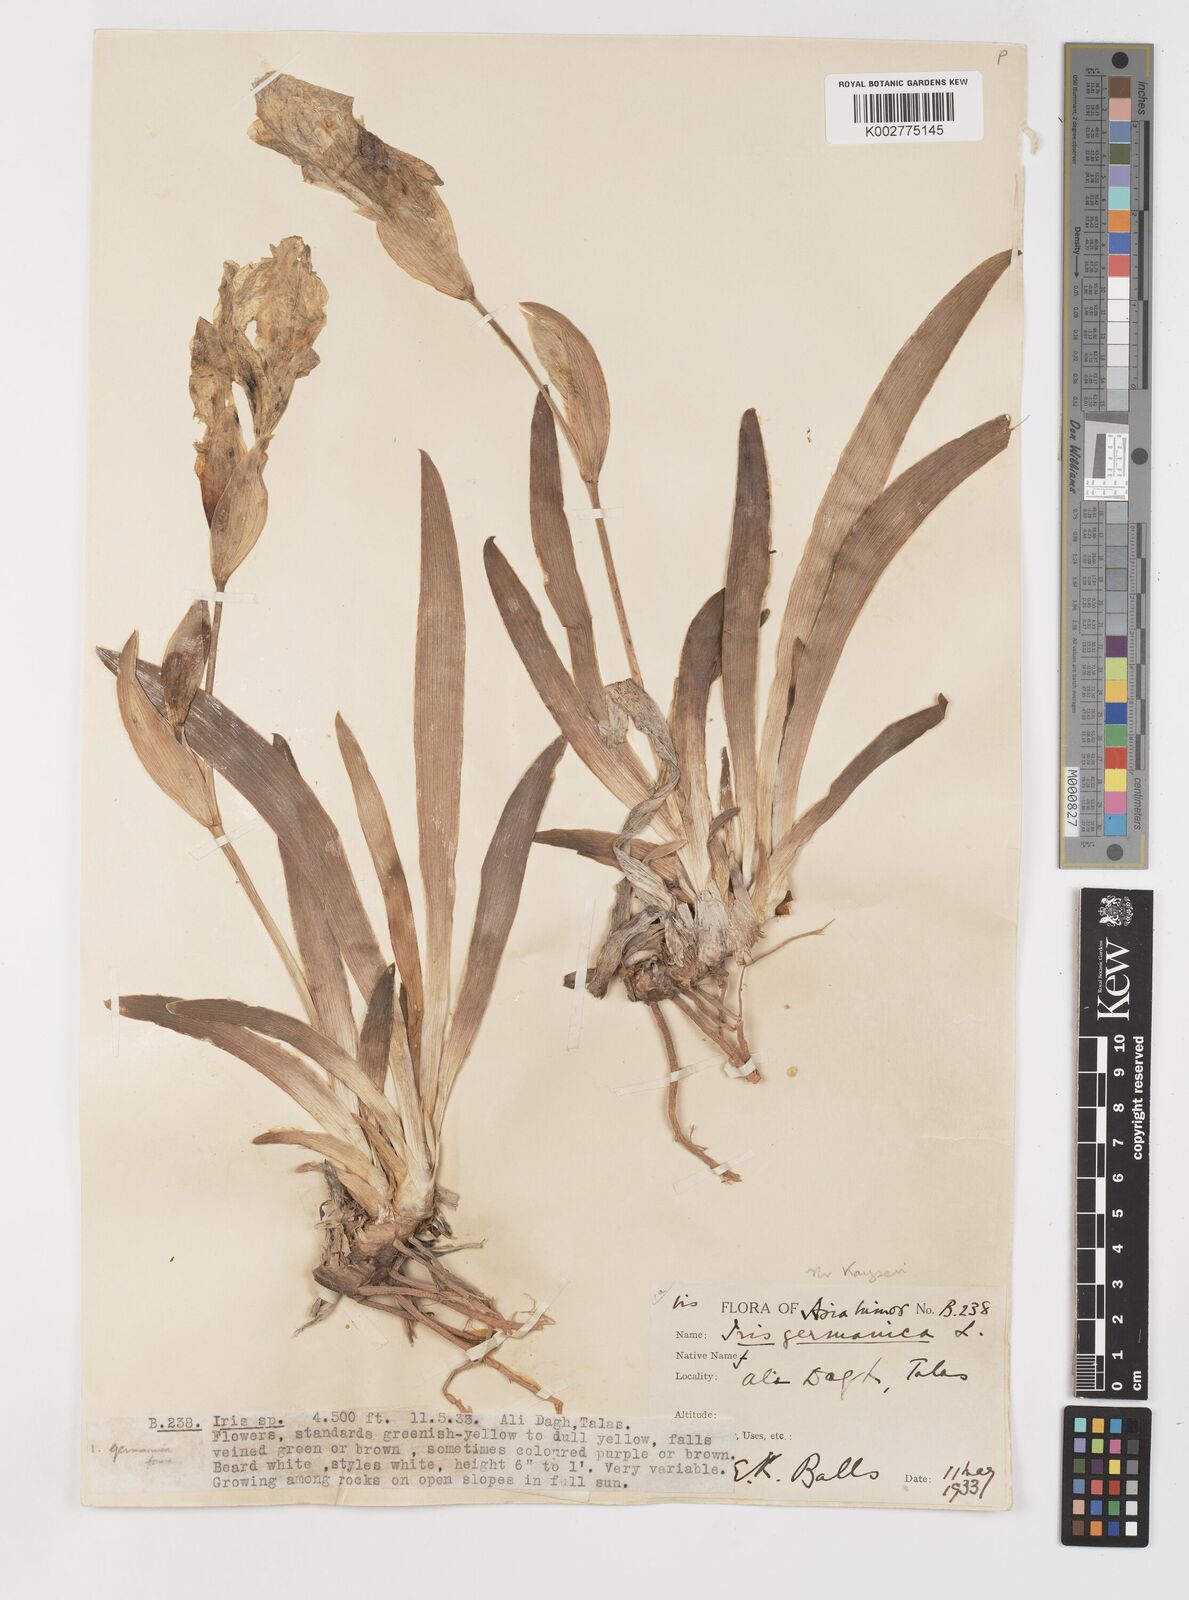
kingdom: Plantae
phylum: Tracheophyta
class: Liliopsida
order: Asparagales
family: Iridaceae
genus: Iris
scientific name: Iris schachtii
